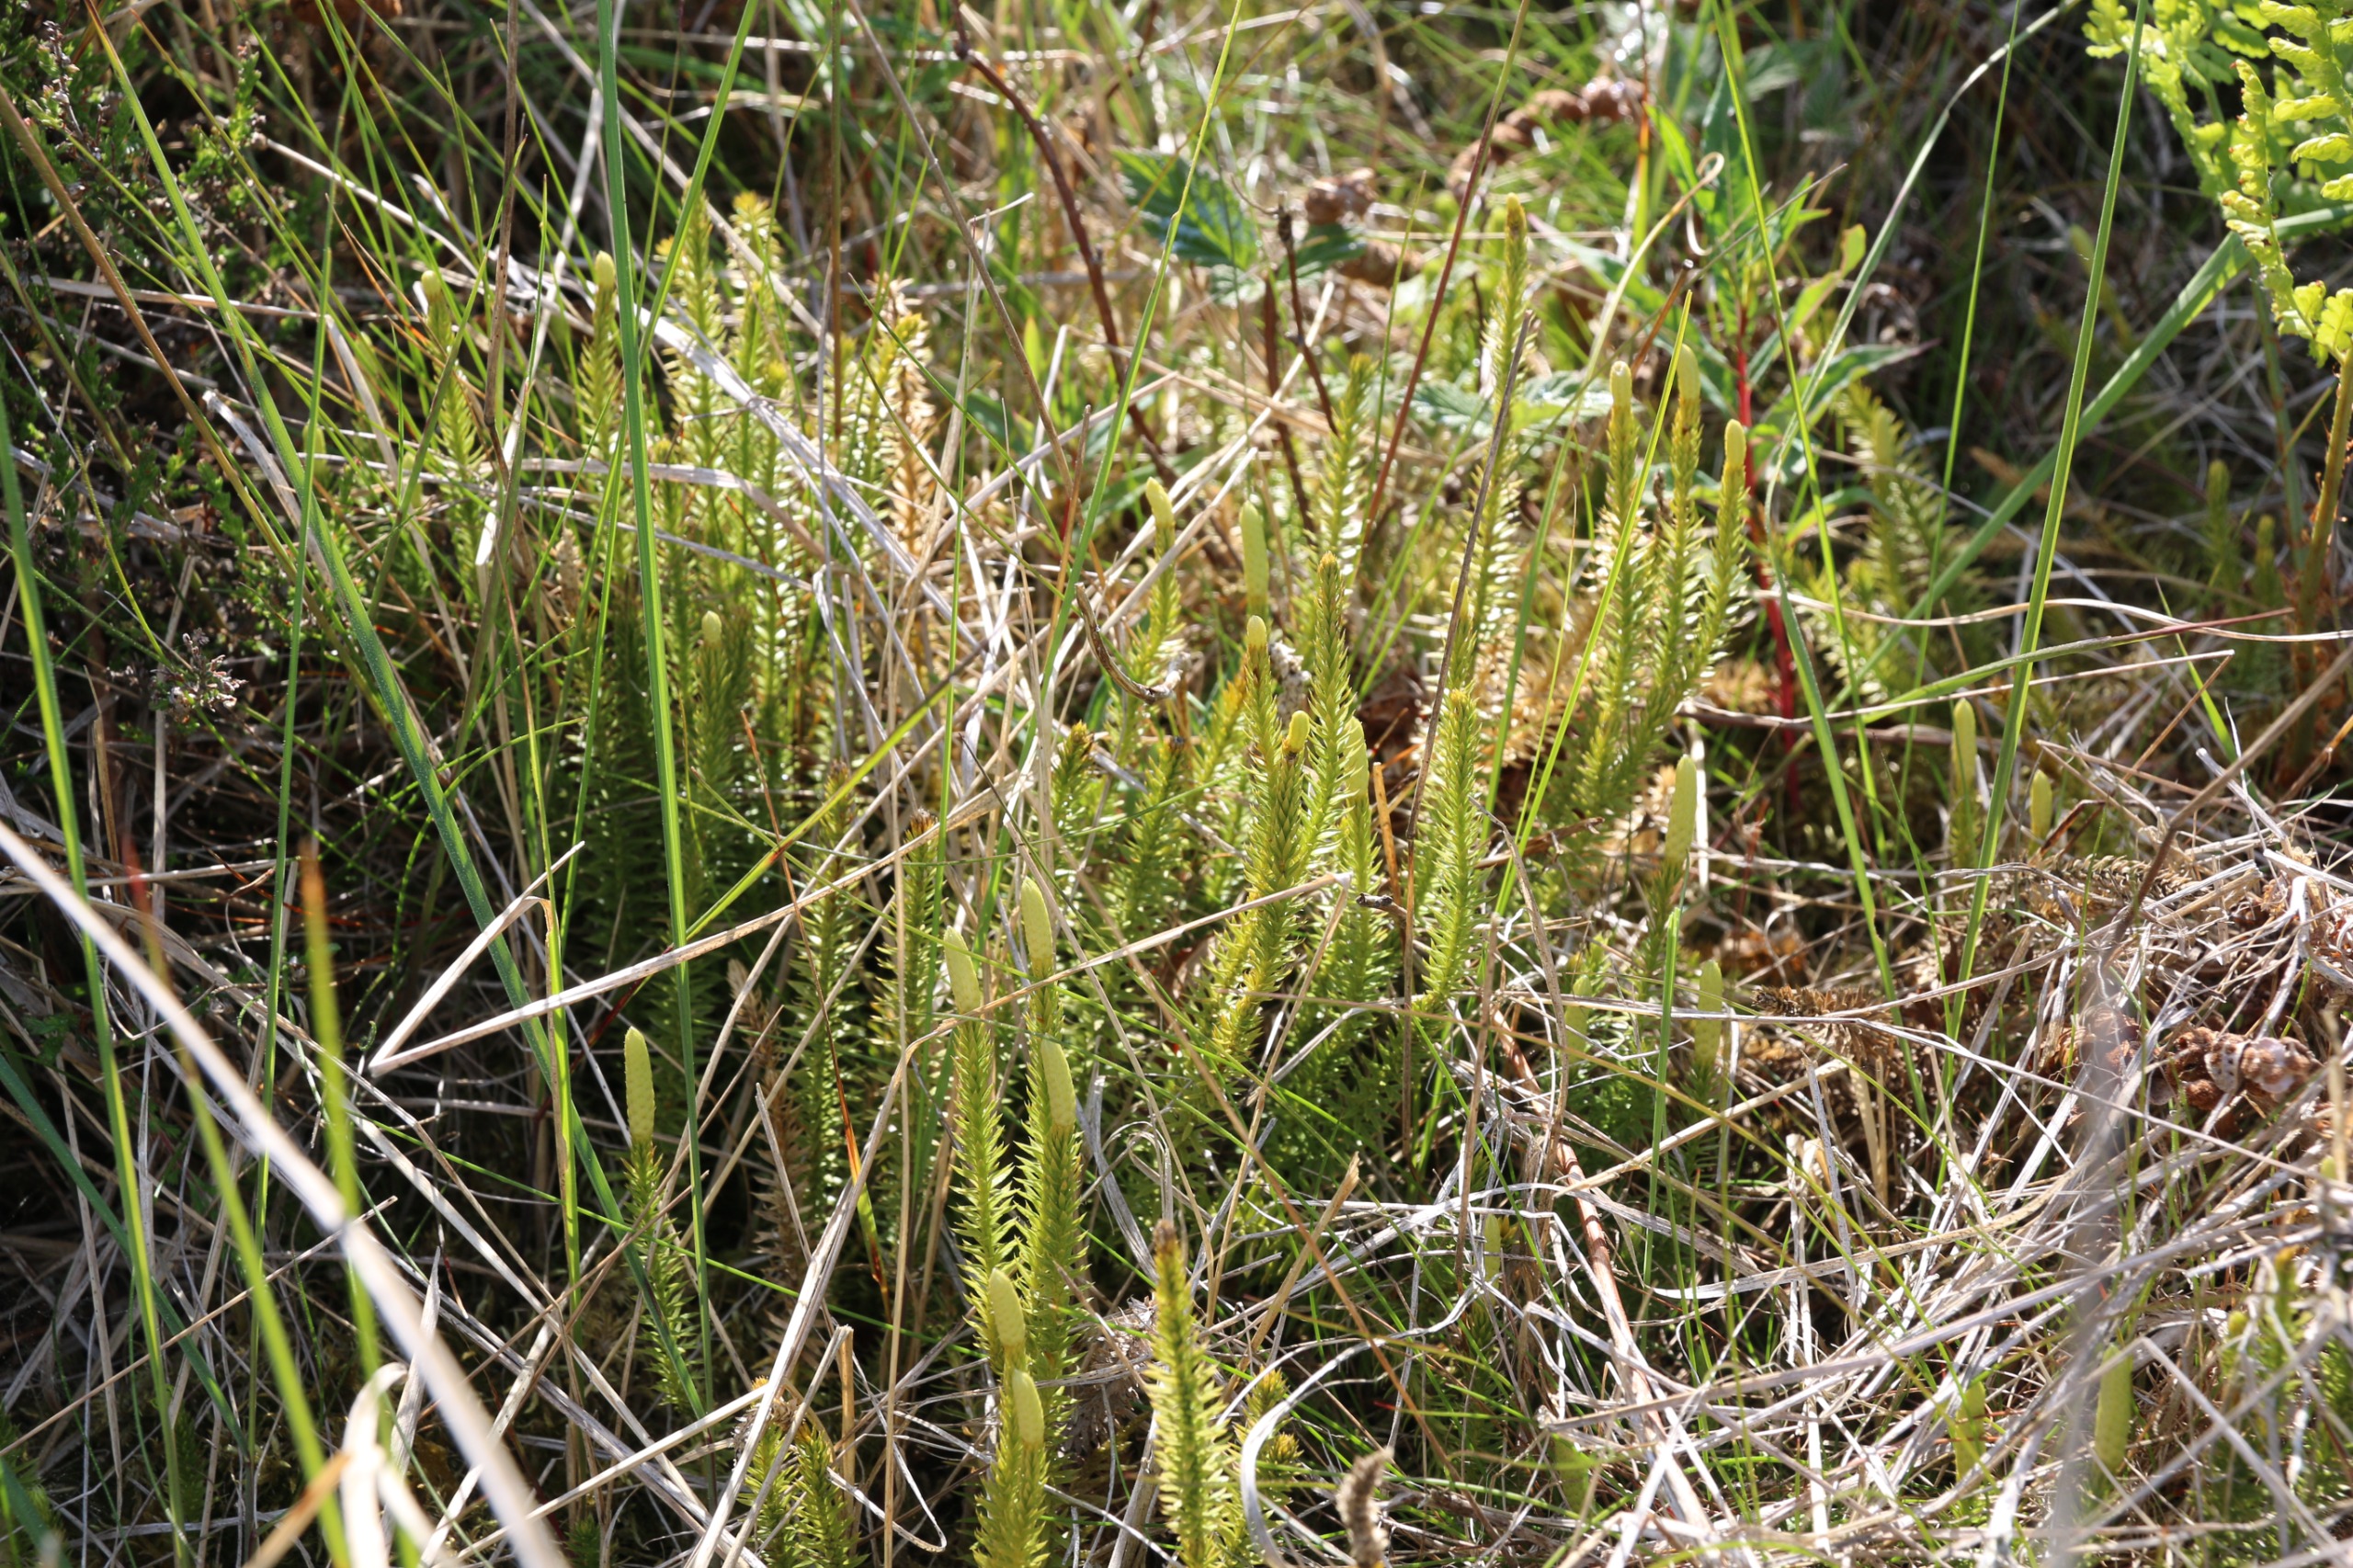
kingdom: Plantae
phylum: Tracheophyta
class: Lycopodiopsida
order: Lycopodiales
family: Lycopodiaceae
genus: Spinulum
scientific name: Spinulum annotinum
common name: Femradet ulvefod
